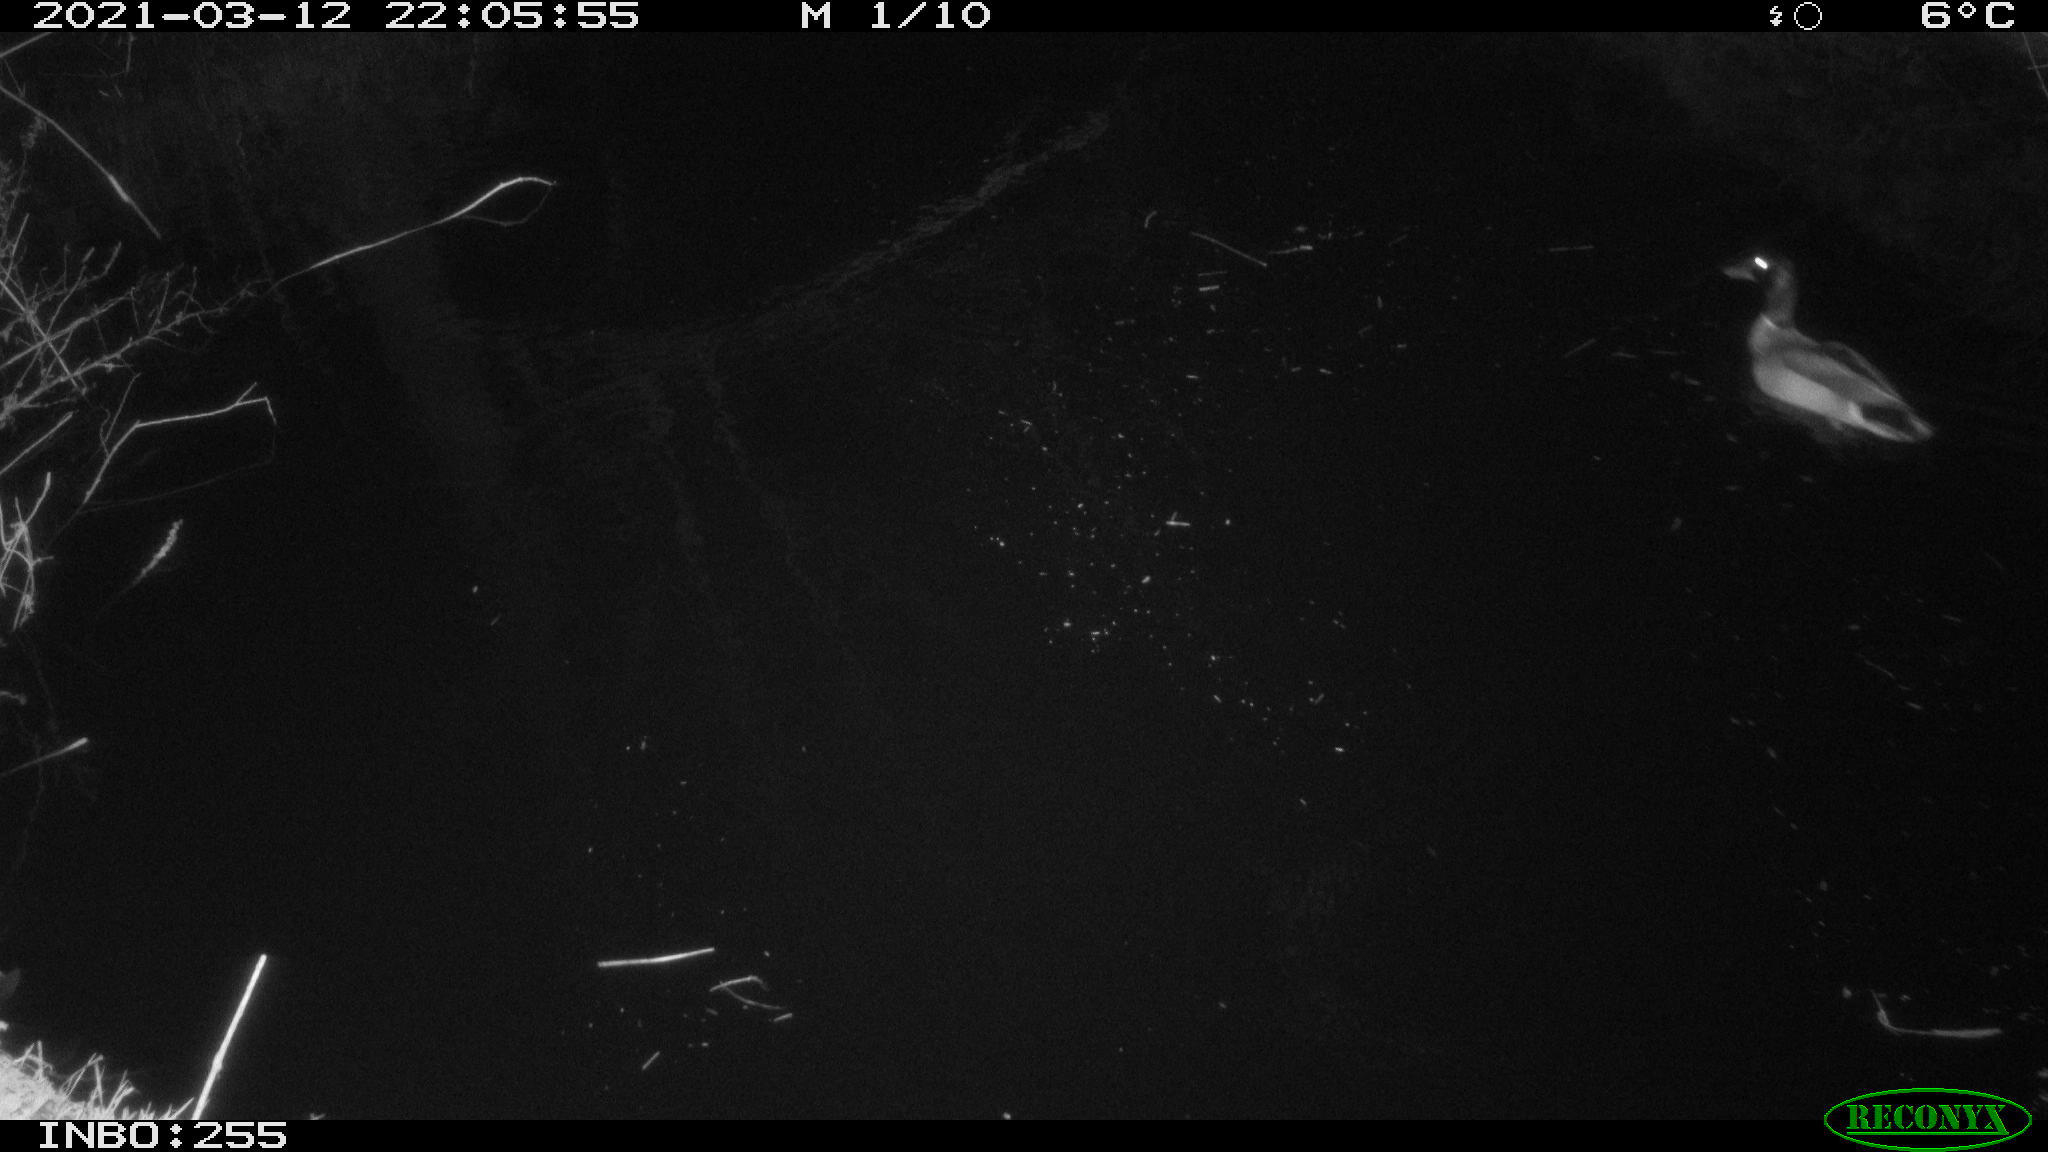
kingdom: Animalia
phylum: Chordata
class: Aves
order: Anseriformes
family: Anatidae
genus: Anas
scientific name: Anas platyrhynchos
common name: Mallard
